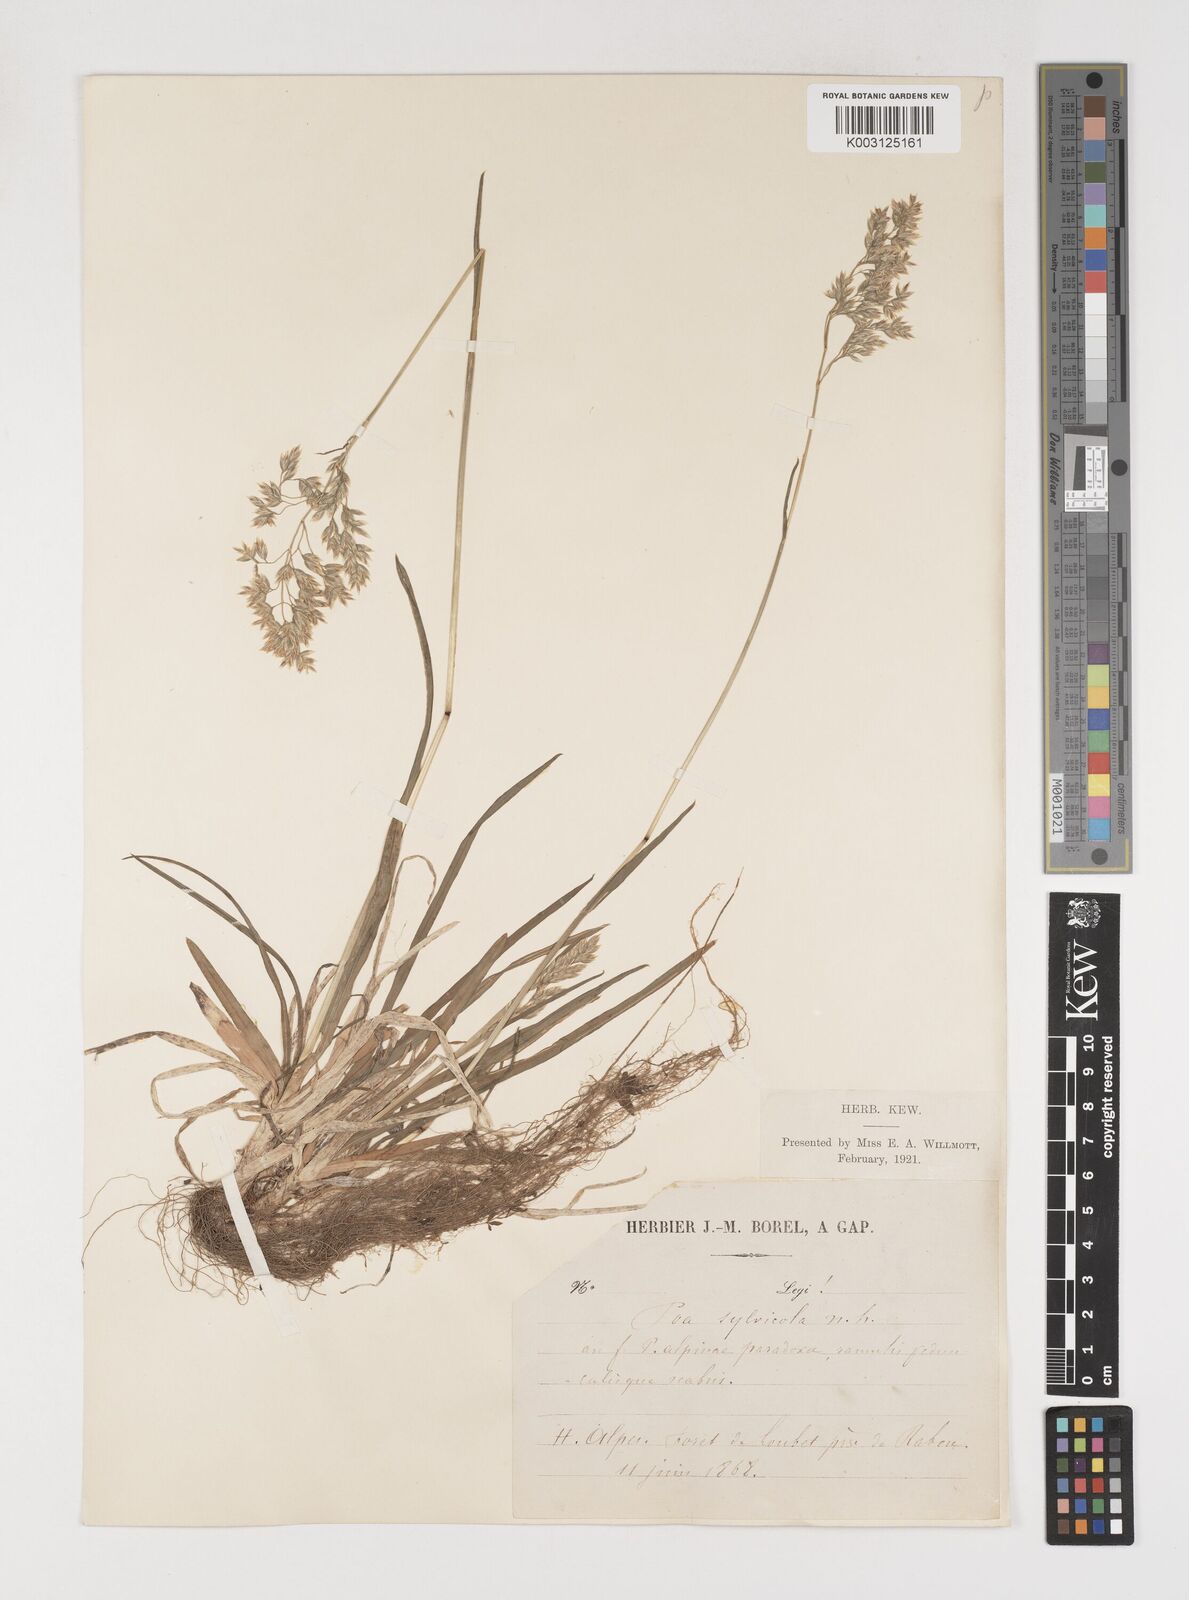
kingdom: Plantae
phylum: Tracheophyta
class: Liliopsida
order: Poales
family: Poaceae
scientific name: Poaceae
